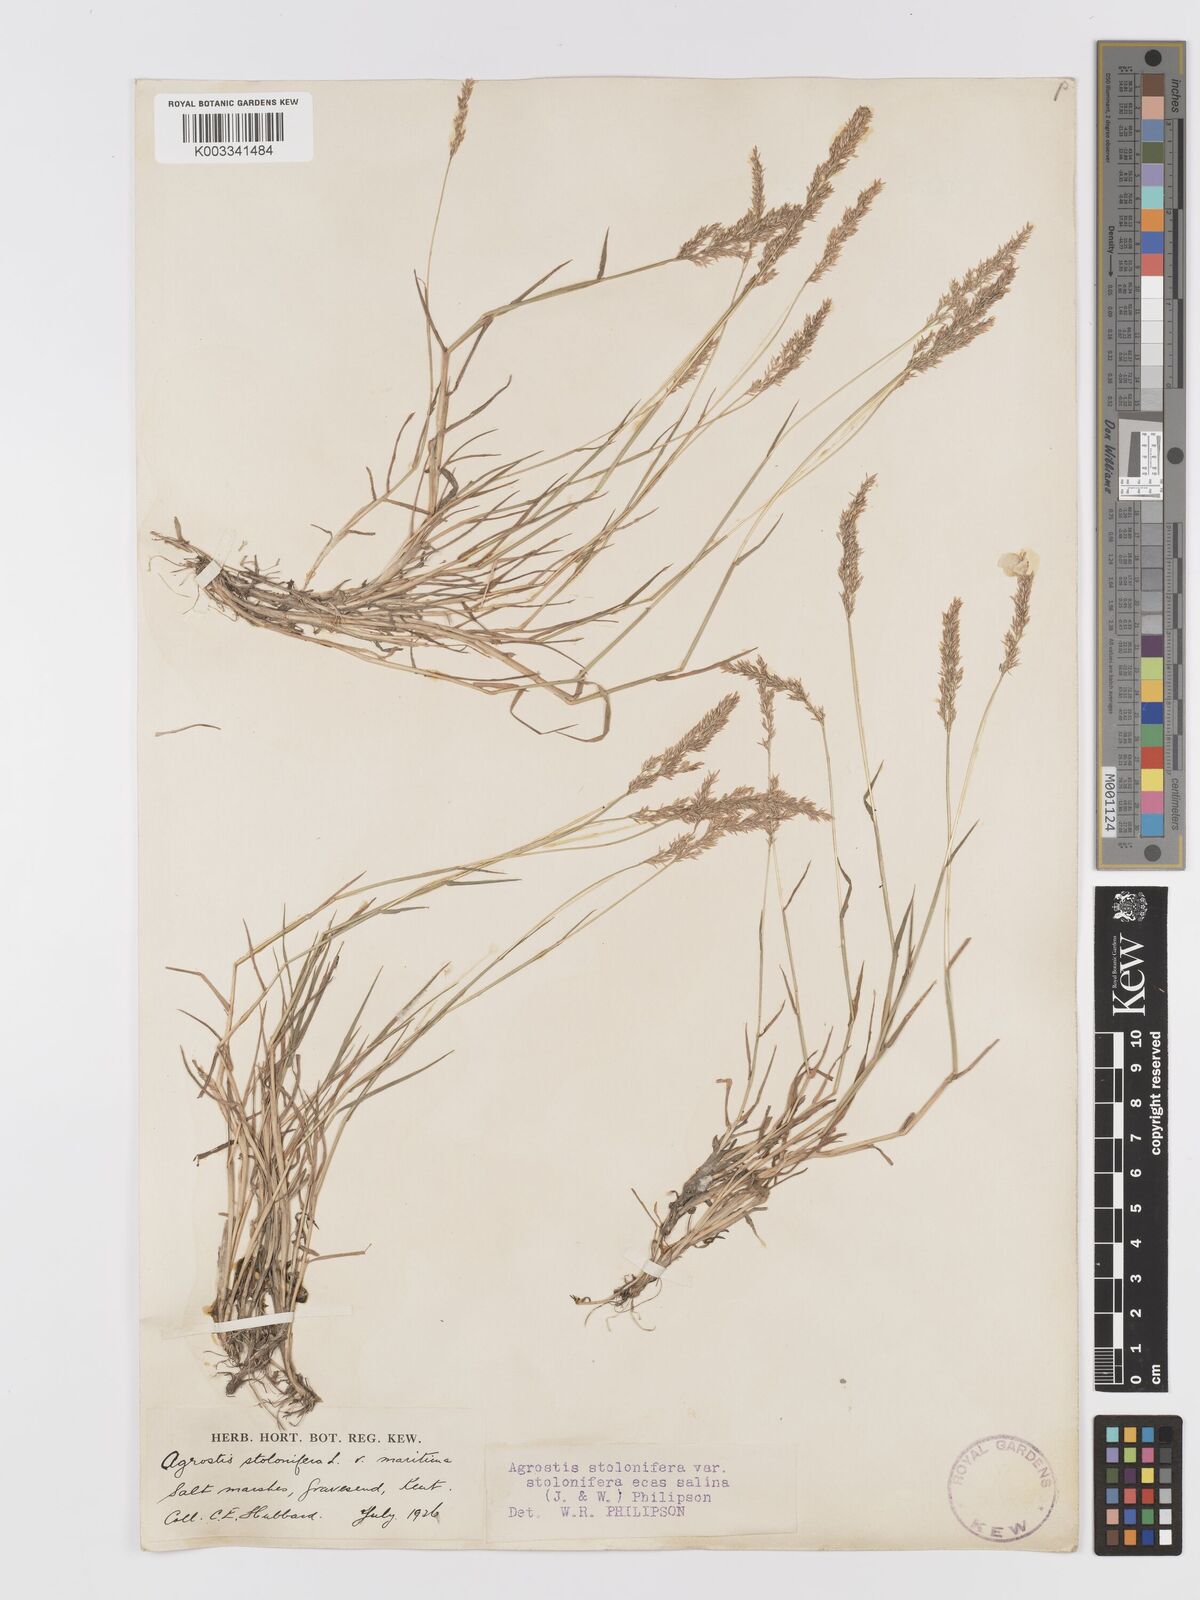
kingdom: Plantae
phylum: Tracheophyta
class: Liliopsida
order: Poales
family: Poaceae
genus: Agrostis
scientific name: Agrostis stolonifera
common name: Creeping bentgrass
